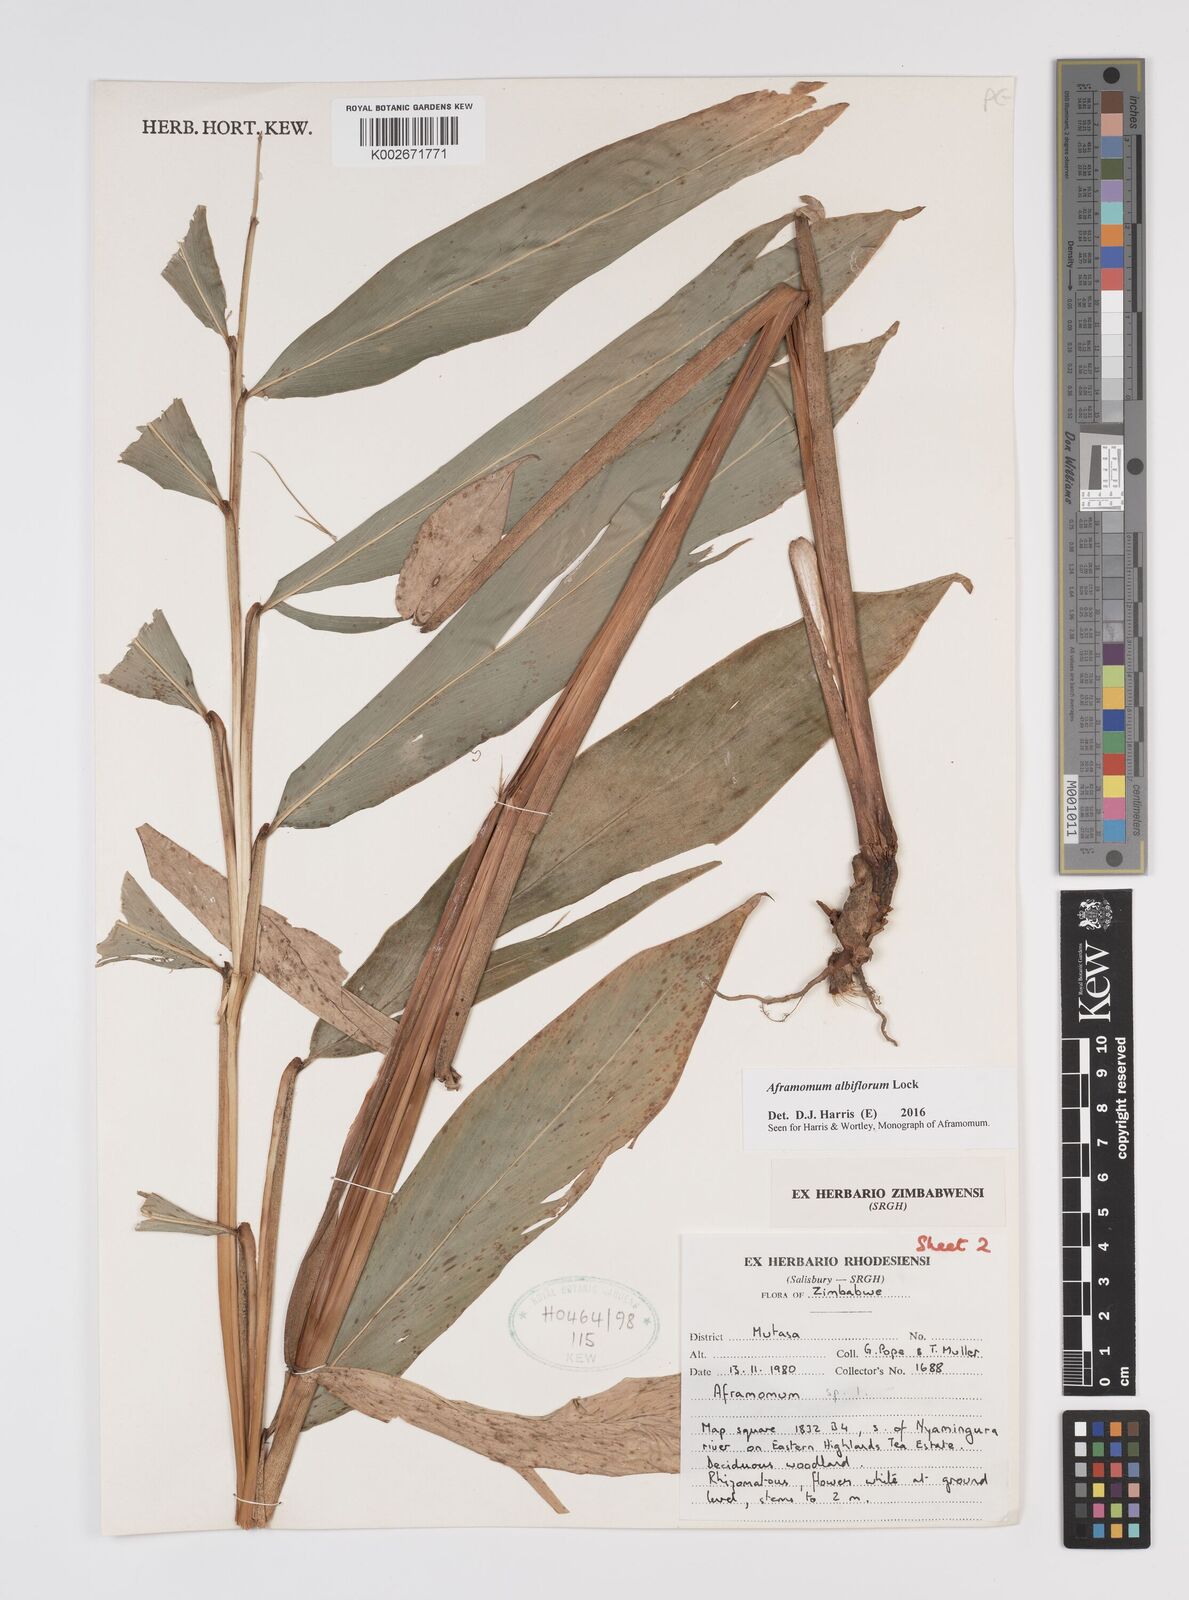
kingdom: Plantae
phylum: Tracheophyta
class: Liliopsida
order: Zingiberales
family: Zingiberaceae
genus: Aframomum
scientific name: Aframomum albiflorum
